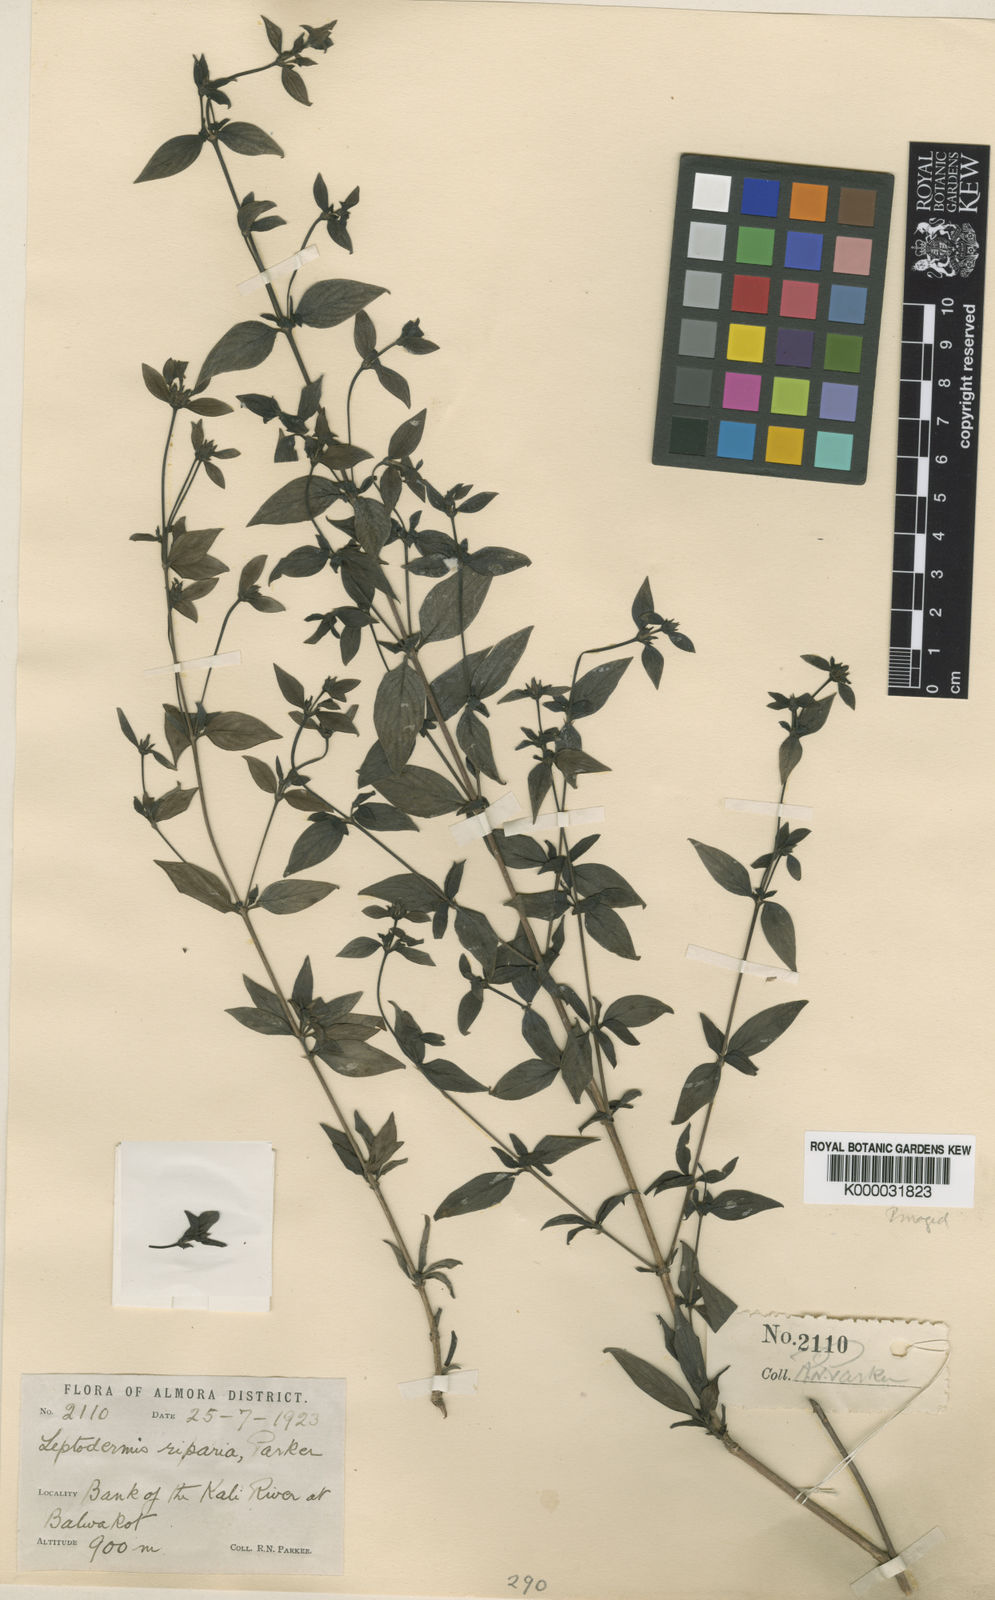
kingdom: Plantae
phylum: Tracheophyta
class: Magnoliopsida
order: Gentianales
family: Rubiaceae
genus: Leptodermis
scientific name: Leptodermis parkeri
